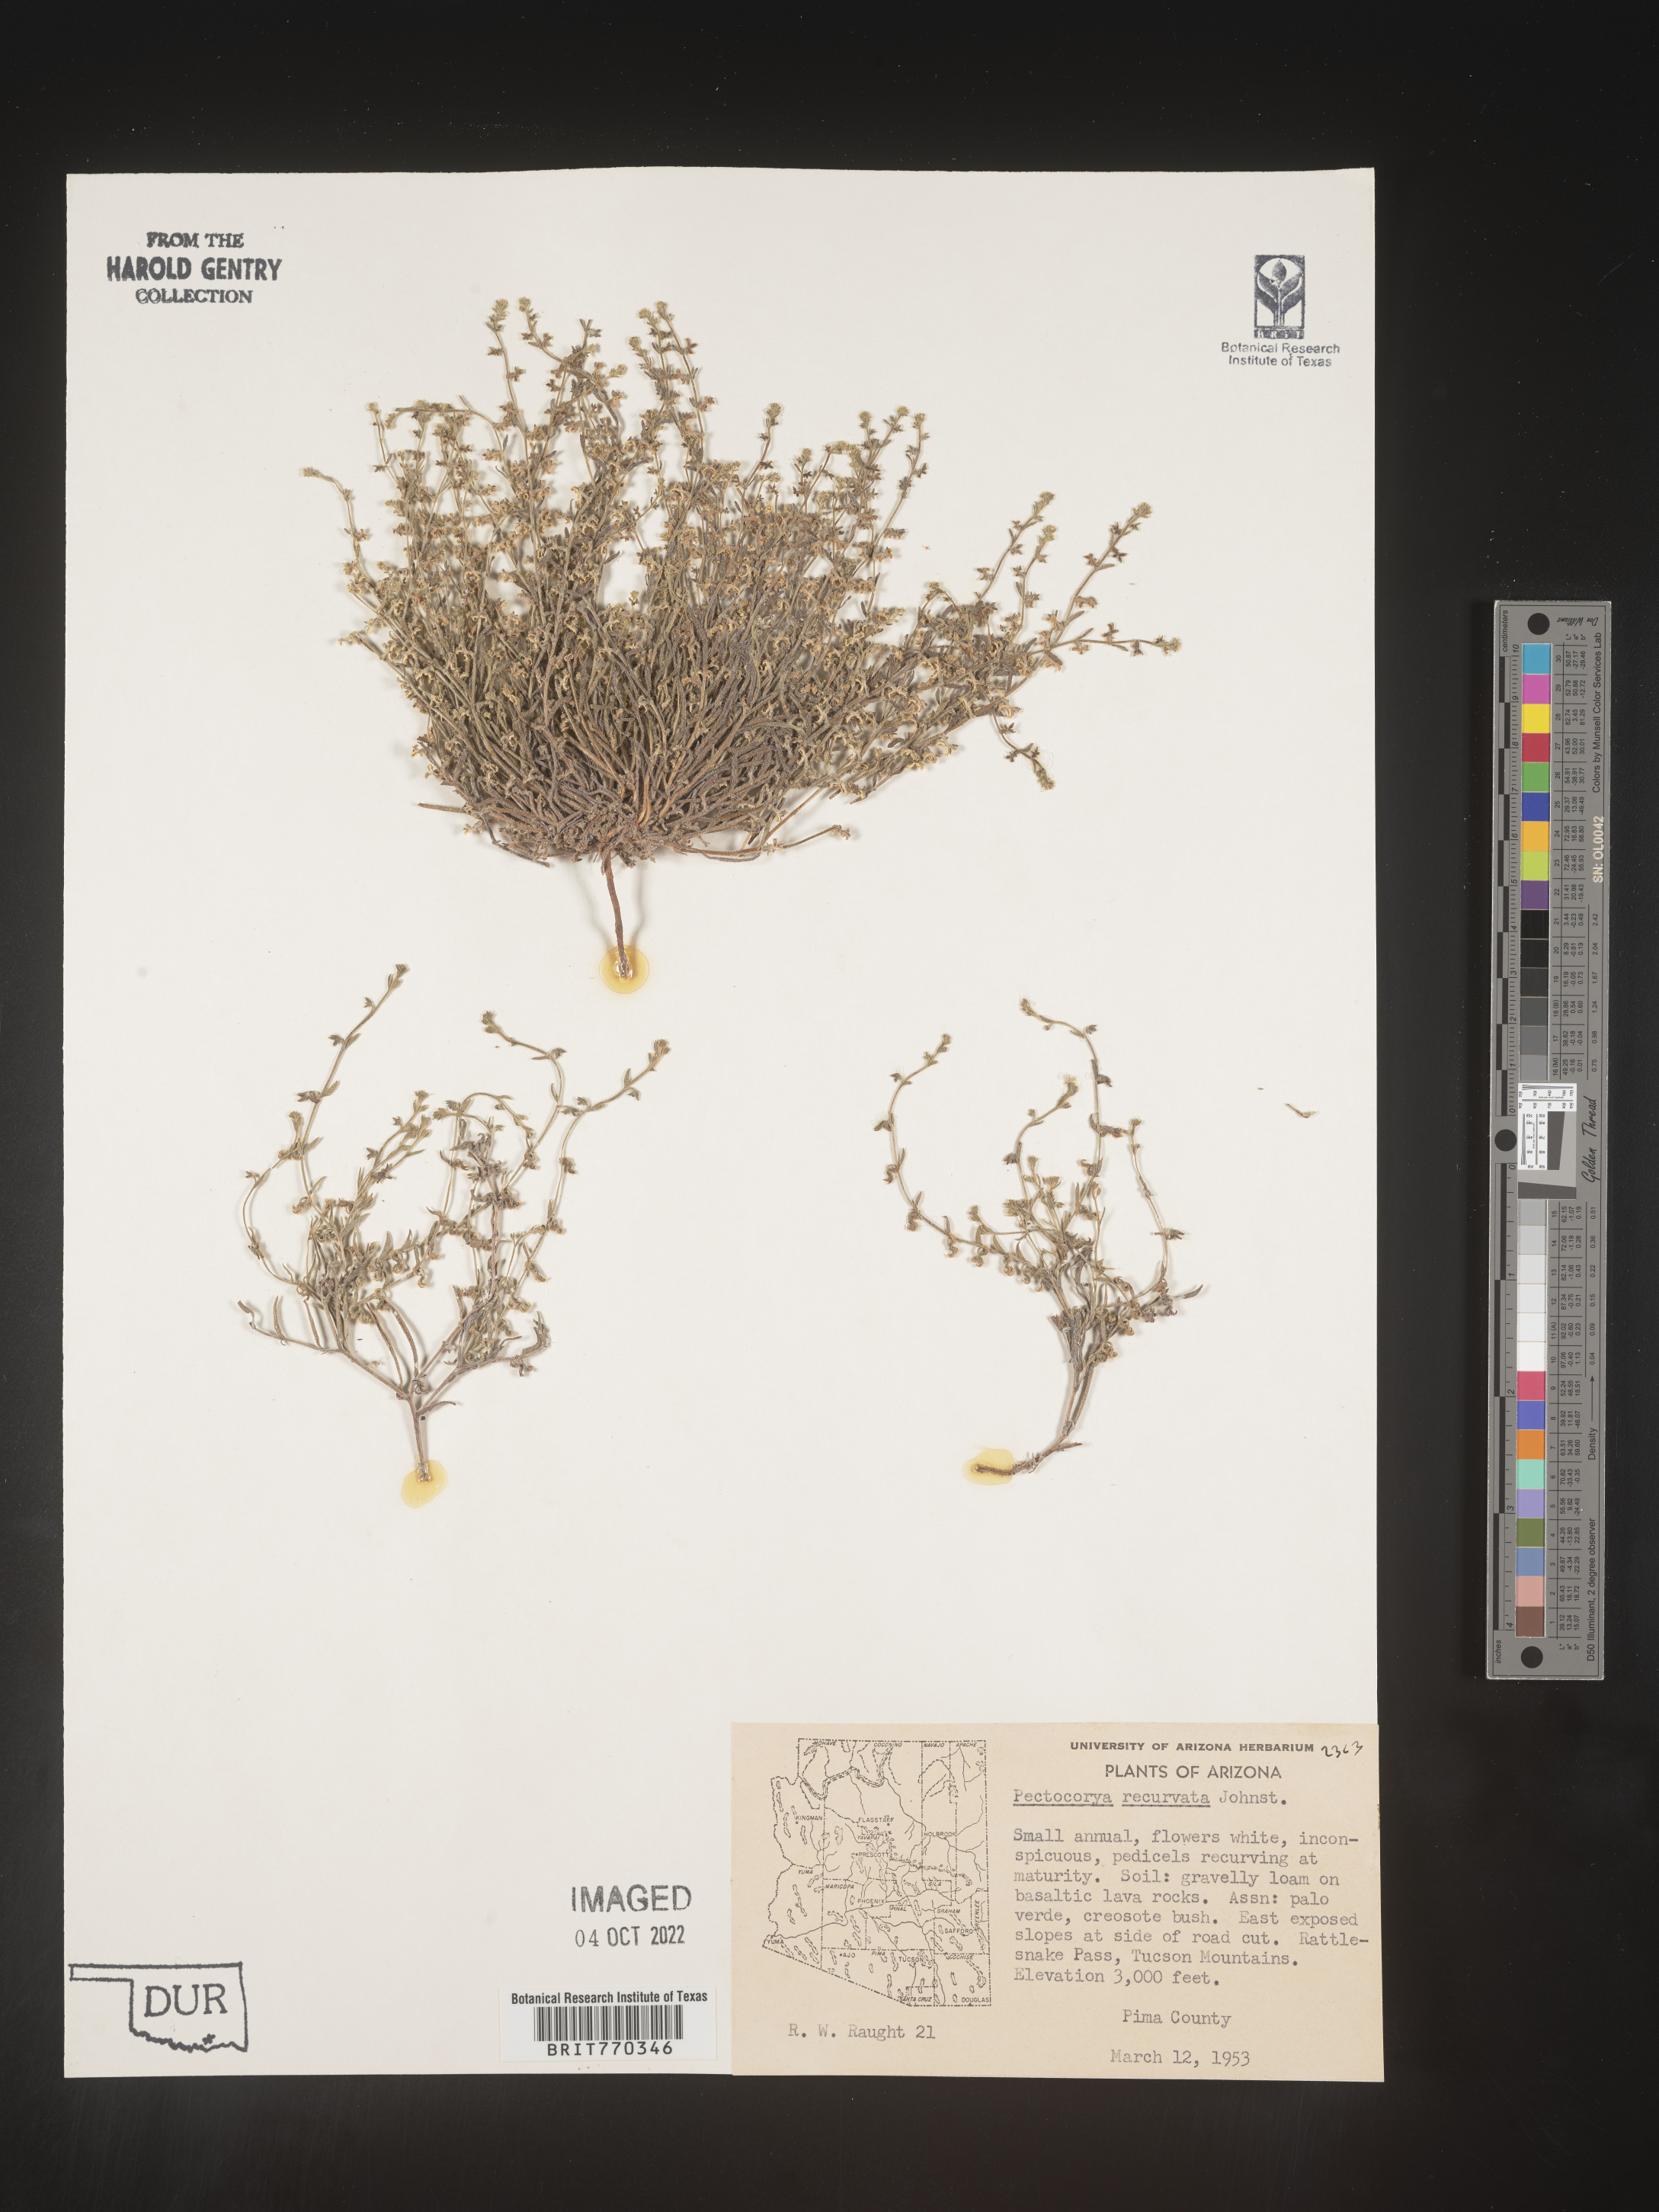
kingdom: Plantae
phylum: Tracheophyta
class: Magnoliopsida
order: Boraginales
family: Boraginaceae
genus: Pectocarya
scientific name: Pectocarya
